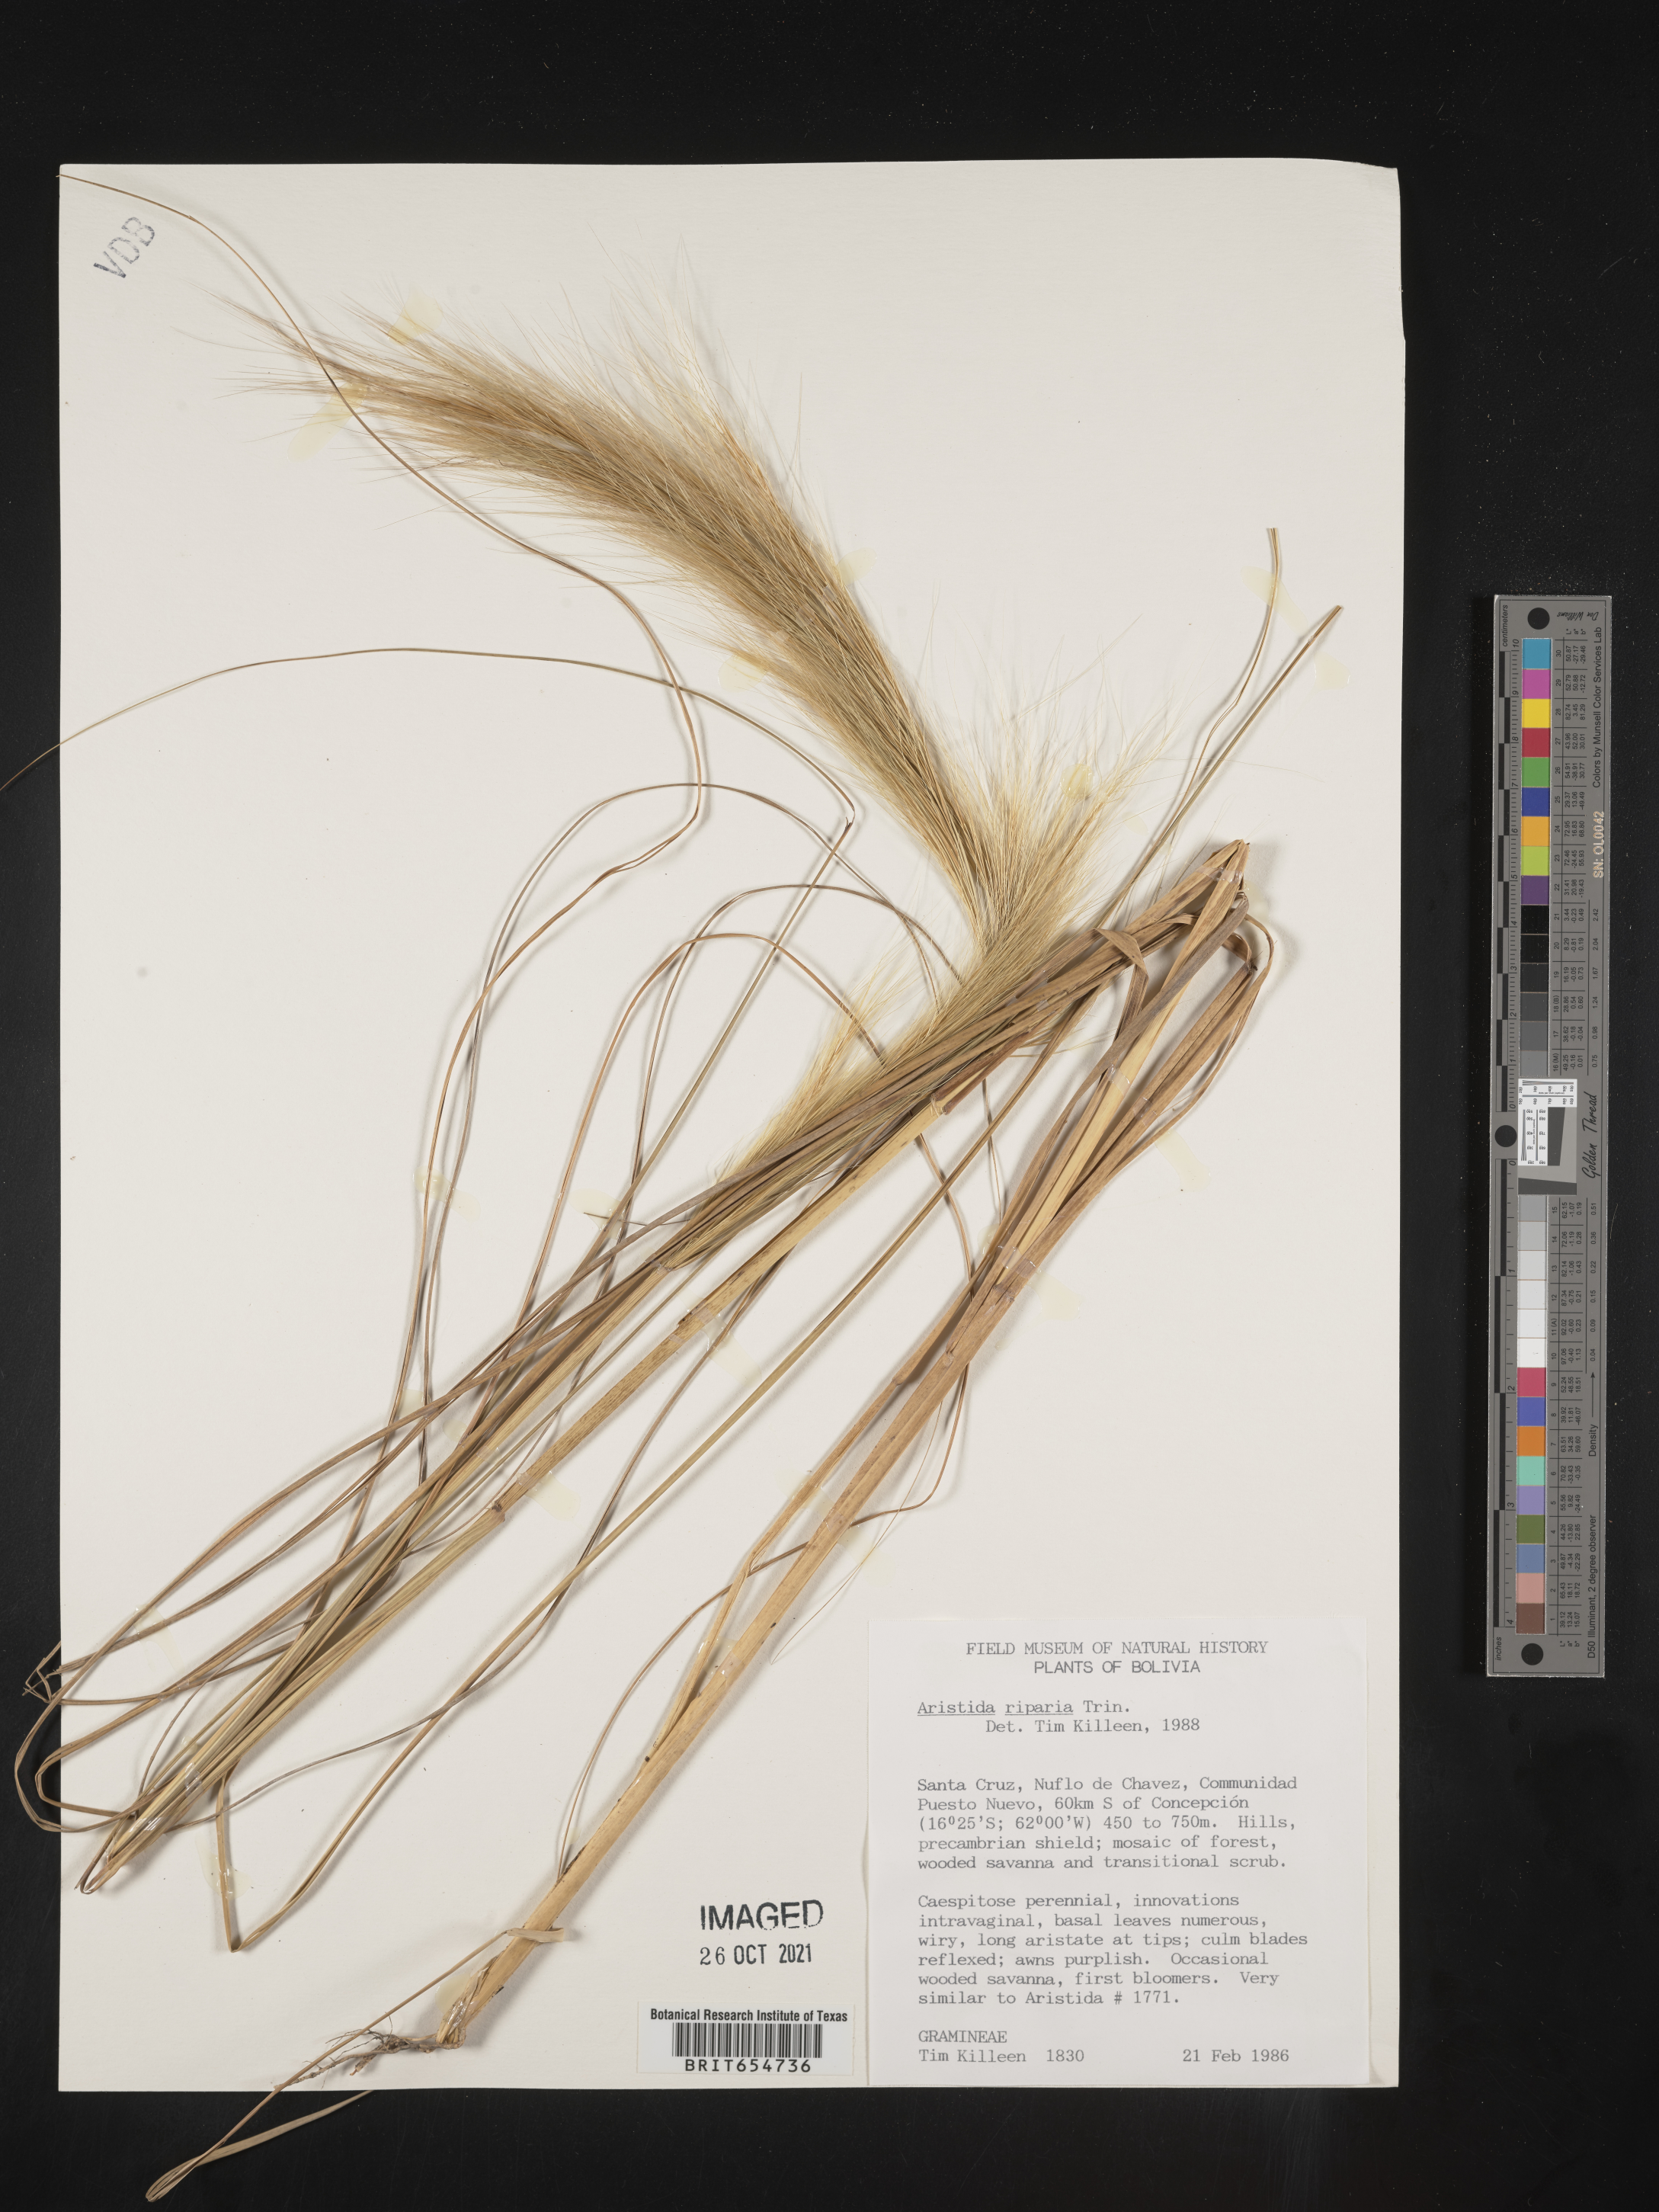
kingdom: Plantae
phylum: Tracheophyta
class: Liliopsida
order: Poales
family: Poaceae
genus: Aristida
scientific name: Aristida
